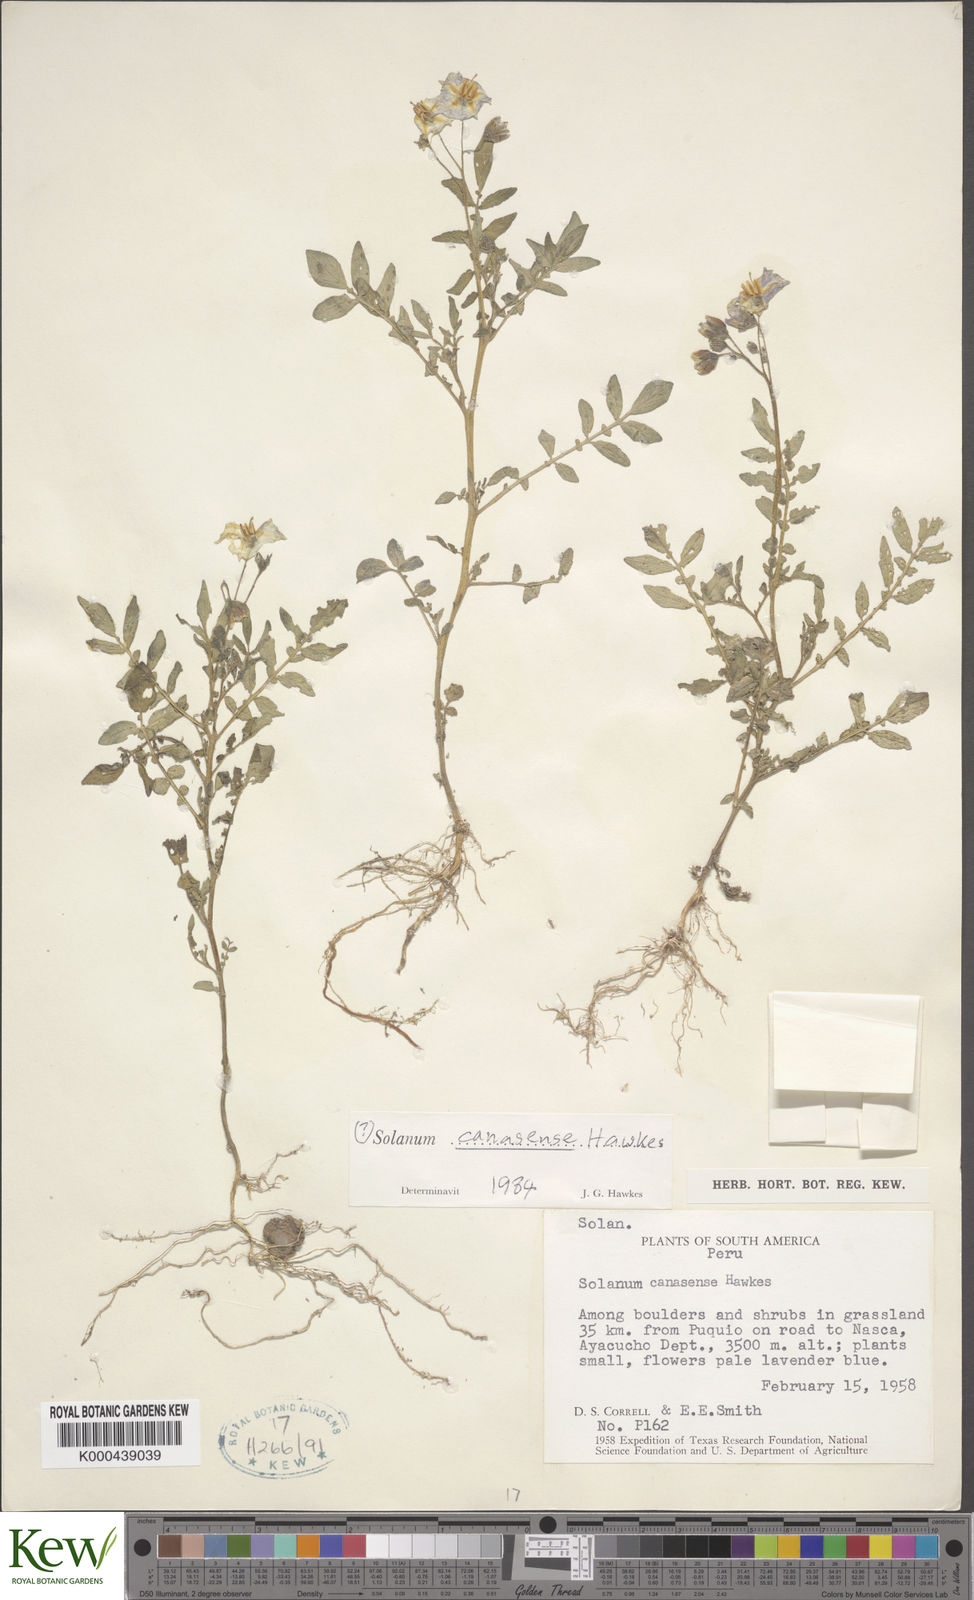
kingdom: Plantae
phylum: Tracheophyta
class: Magnoliopsida
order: Solanales
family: Solanaceae
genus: Solanum
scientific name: Solanum candolleanum
